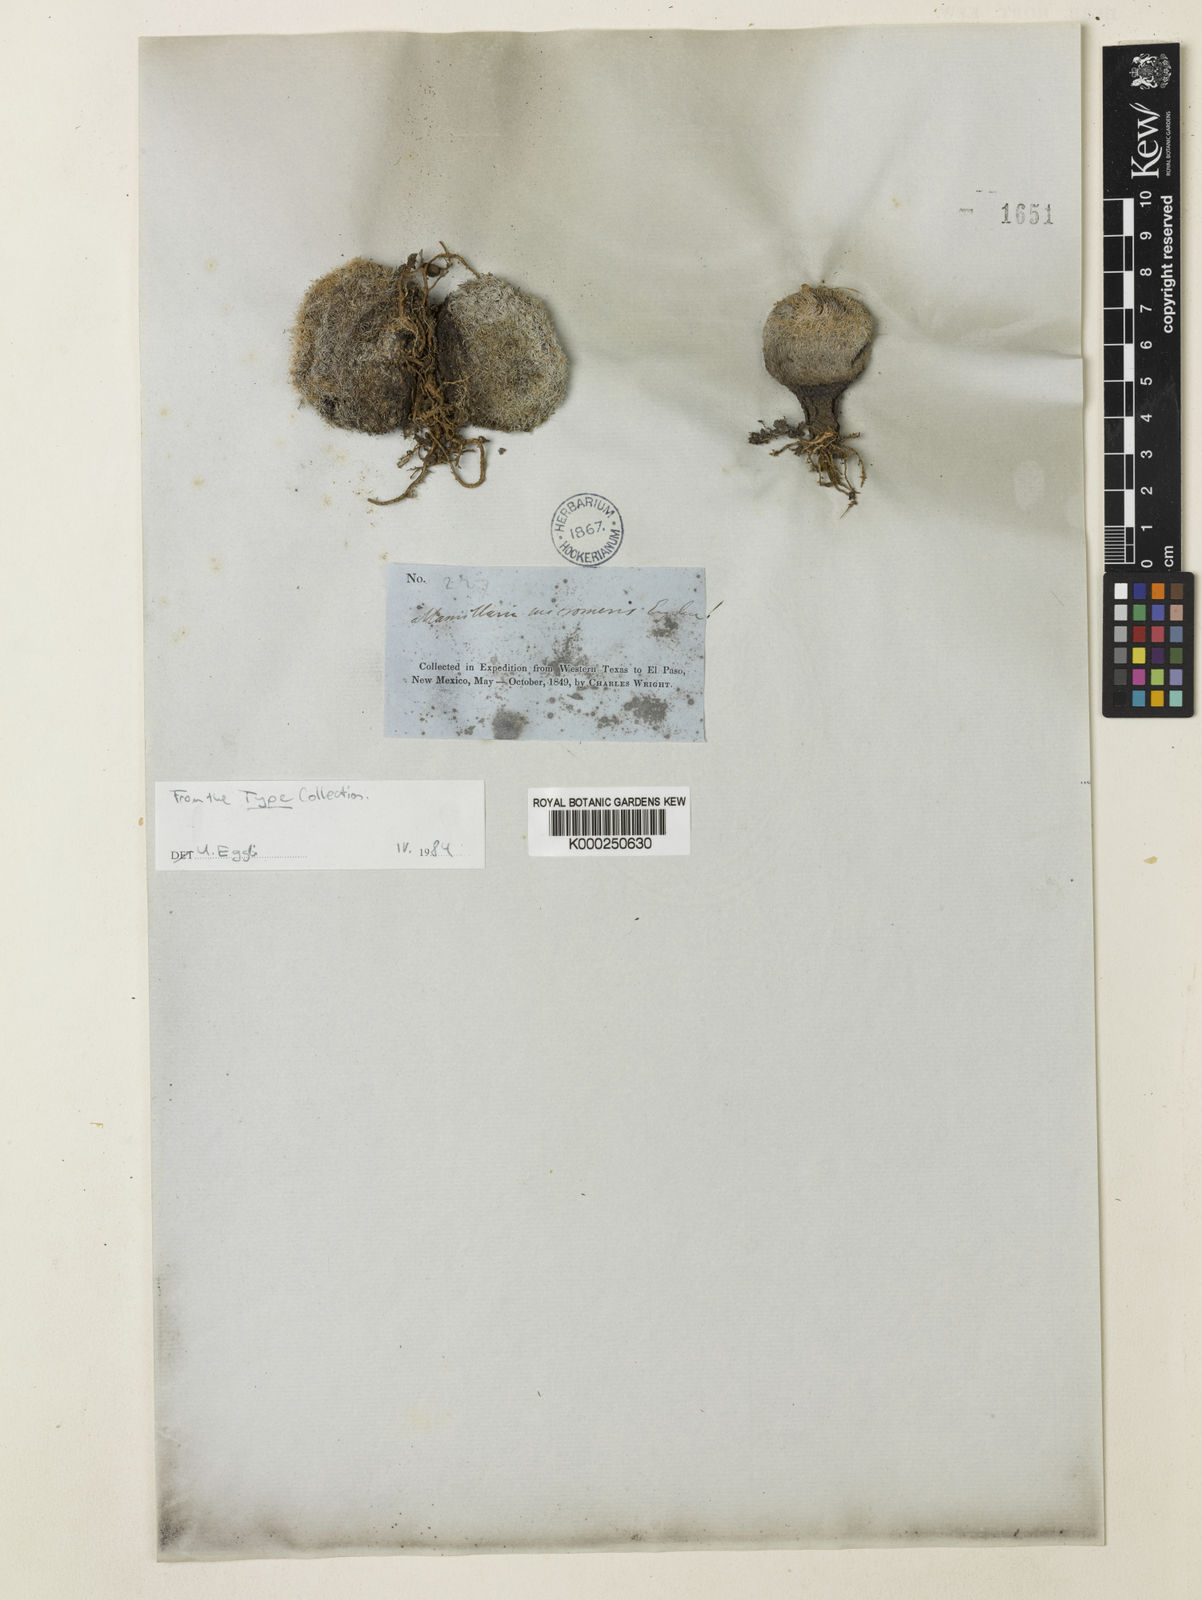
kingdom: Plantae
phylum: Tracheophyta
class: Magnoliopsida
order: Caryophyllales
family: Cactaceae
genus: Epithelantha
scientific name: Epithelantha
